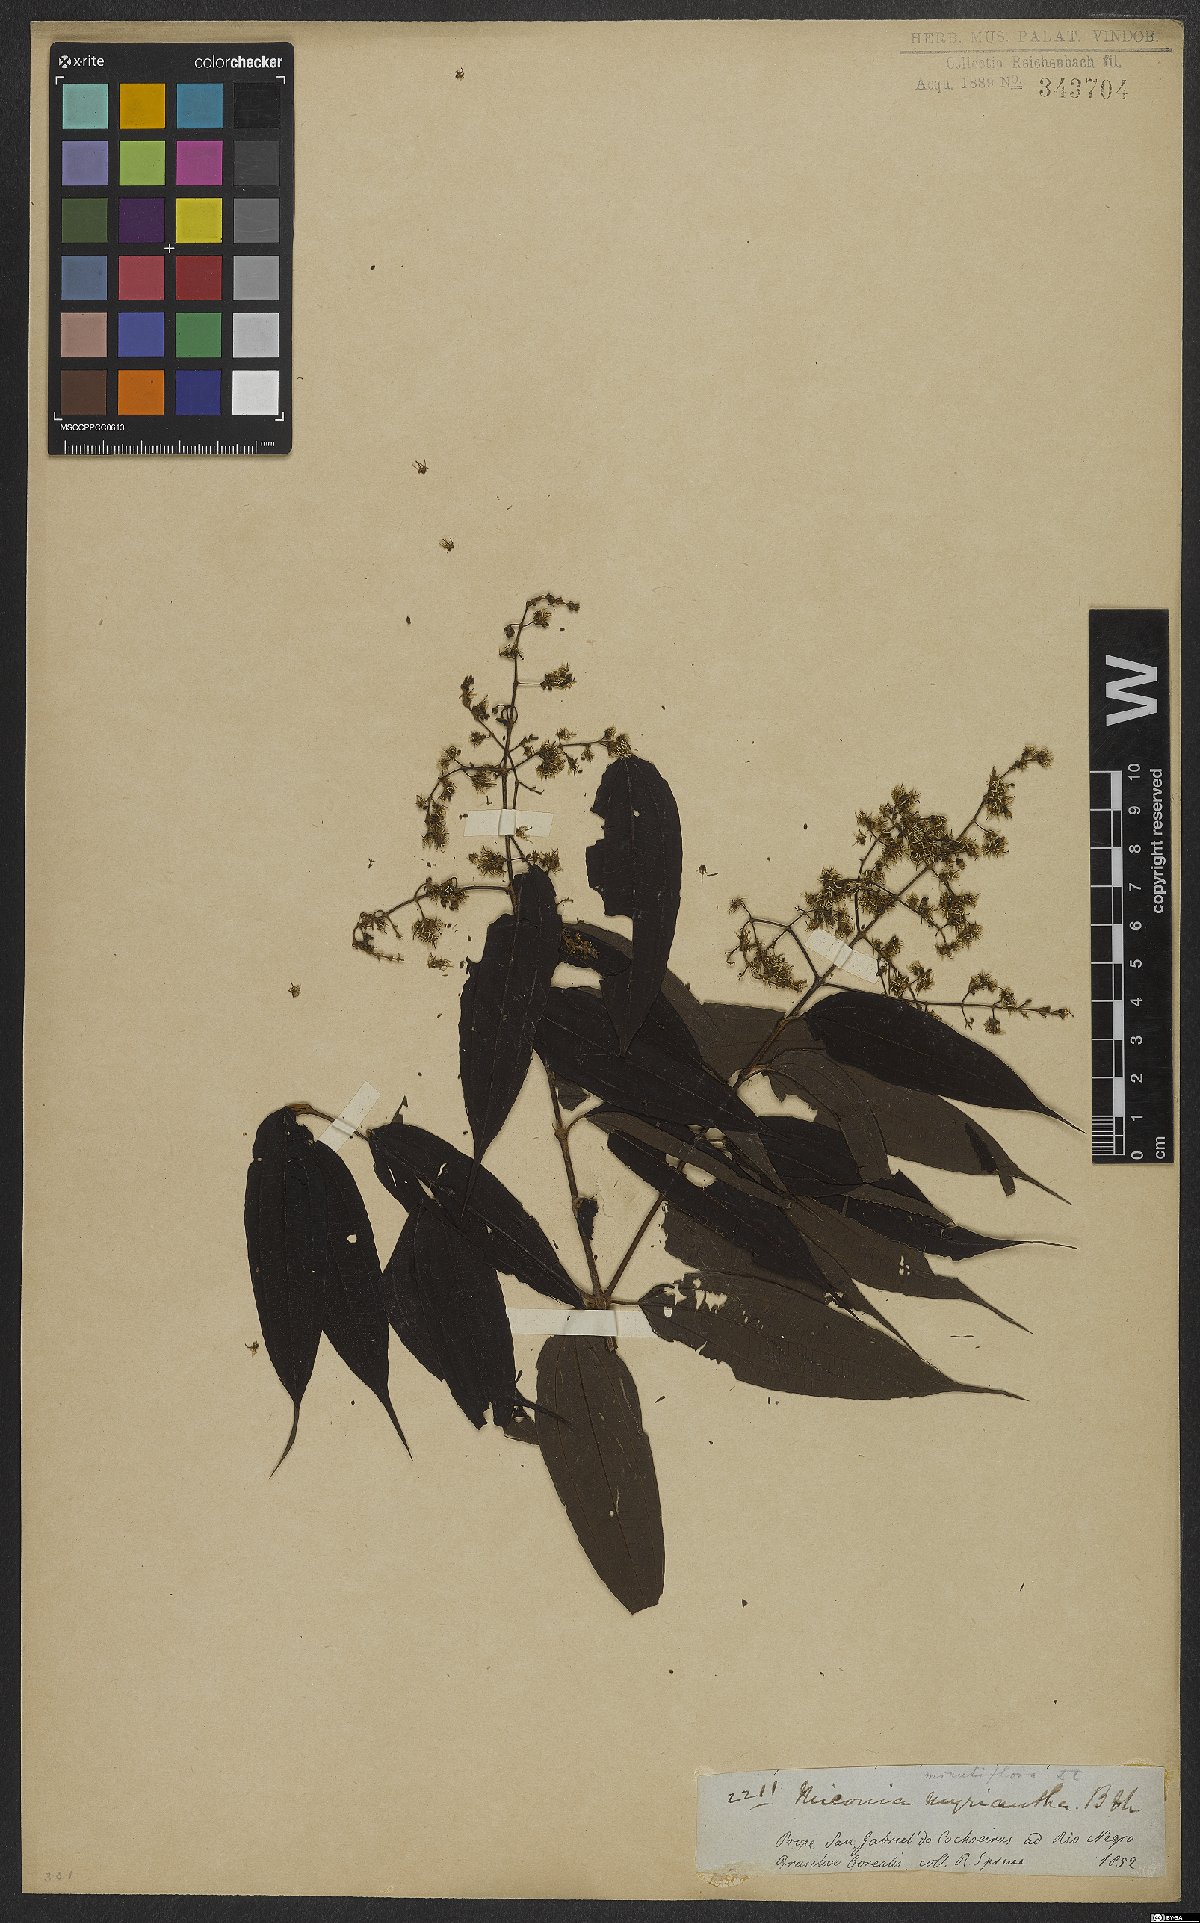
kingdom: Plantae
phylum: Tracheophyta
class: Magnoliopsida
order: Myrtales
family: Melastomataceae
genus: Miconia
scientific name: Miconia minutiflora
